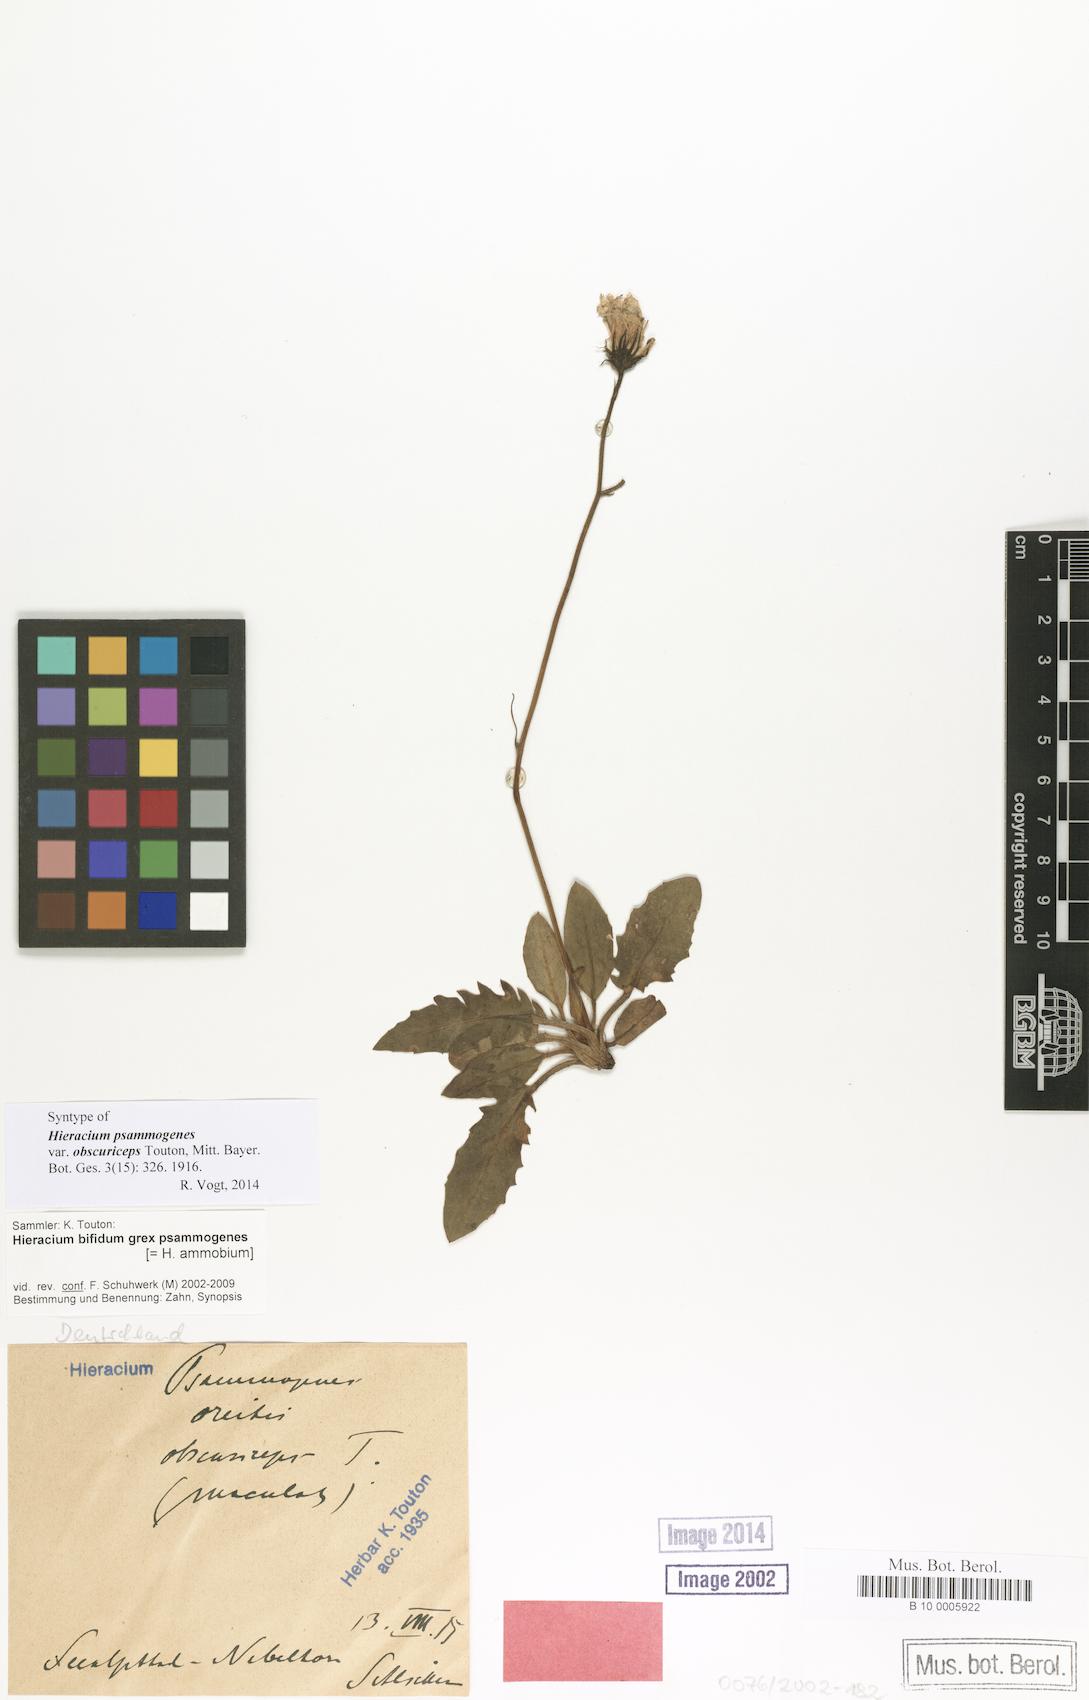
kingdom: Plantae
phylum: Tracheophyta
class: Magnoliopsida
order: Asterales
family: Asteraceae
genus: Hieracium
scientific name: Hieracium psammogenes
